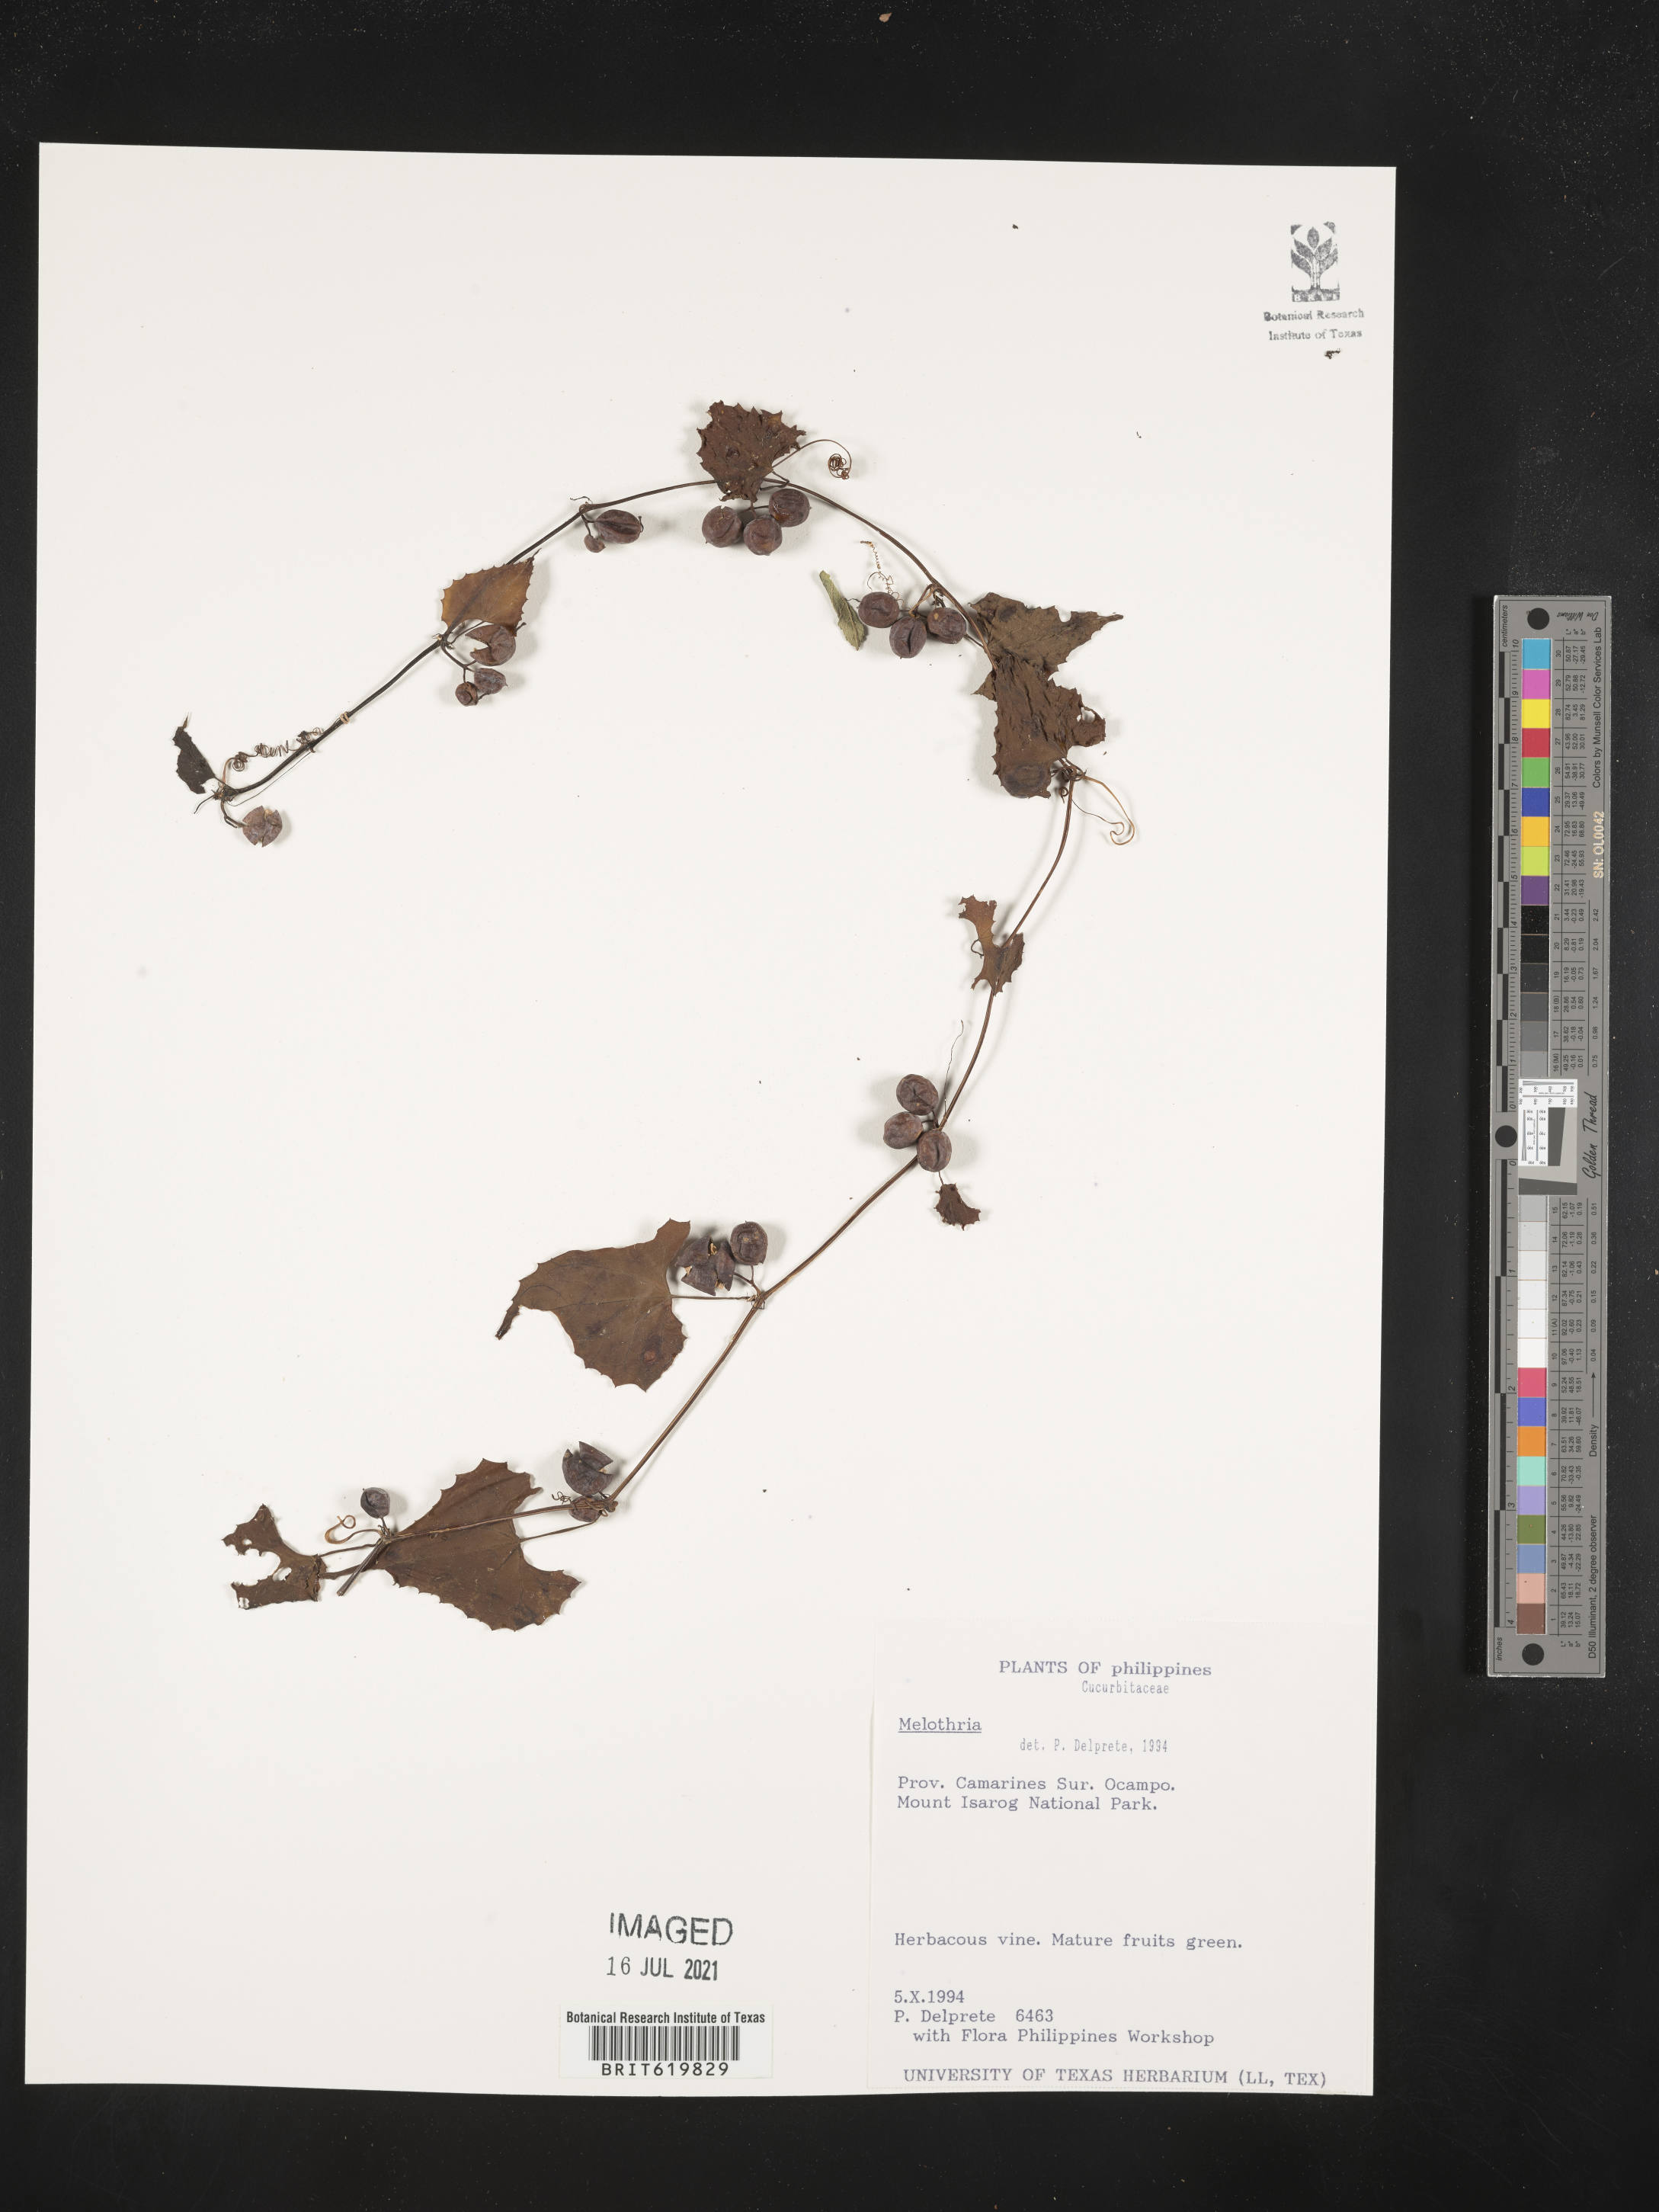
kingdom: Plantae
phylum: Tracheophyta
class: Magnoliopsida
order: Cucurbitales
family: Cucurbitaceae
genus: Melothria
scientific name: Melothria
